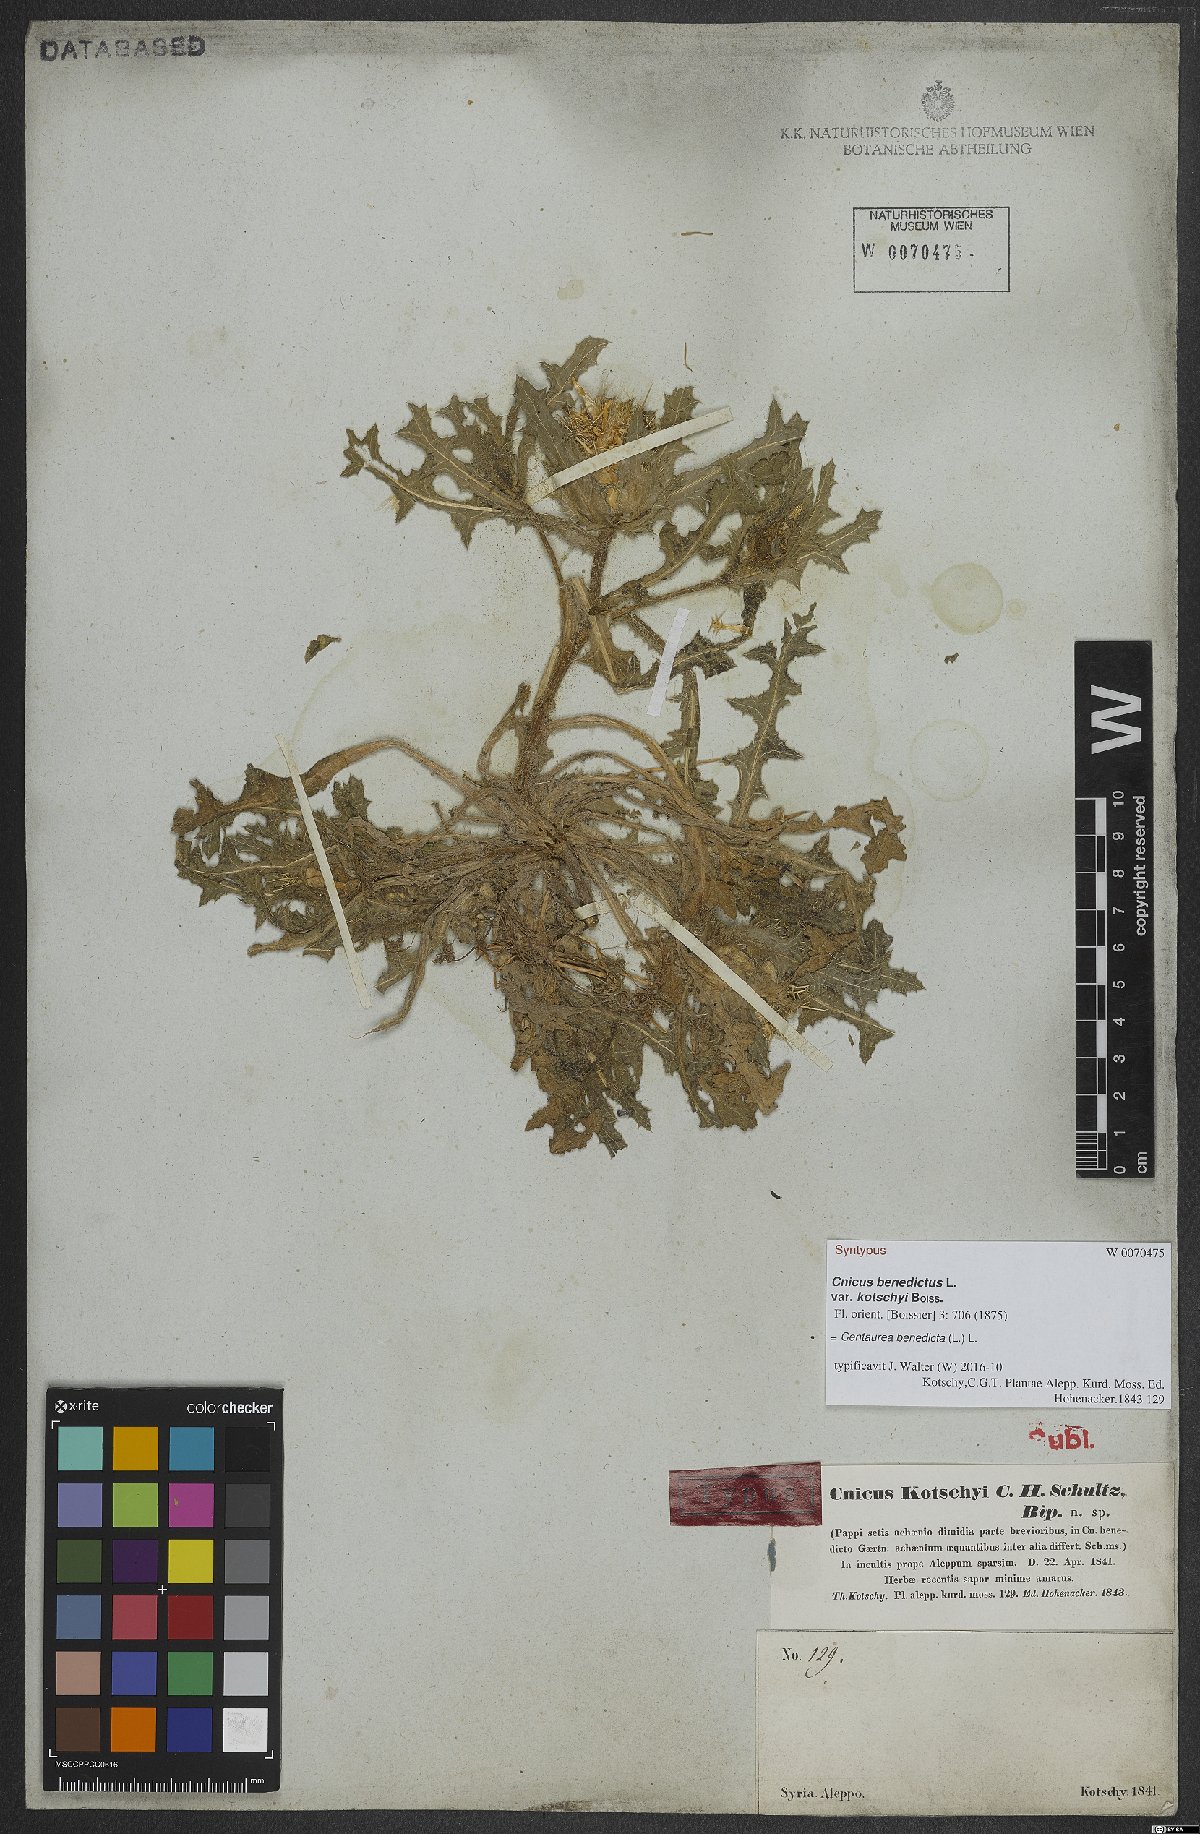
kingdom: Plantae
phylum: Tracheophyta
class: Magnoliopsida
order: Asterales
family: Asteraceae
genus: Centaurea
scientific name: Centaurea benedicta
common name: Blessed thistle
